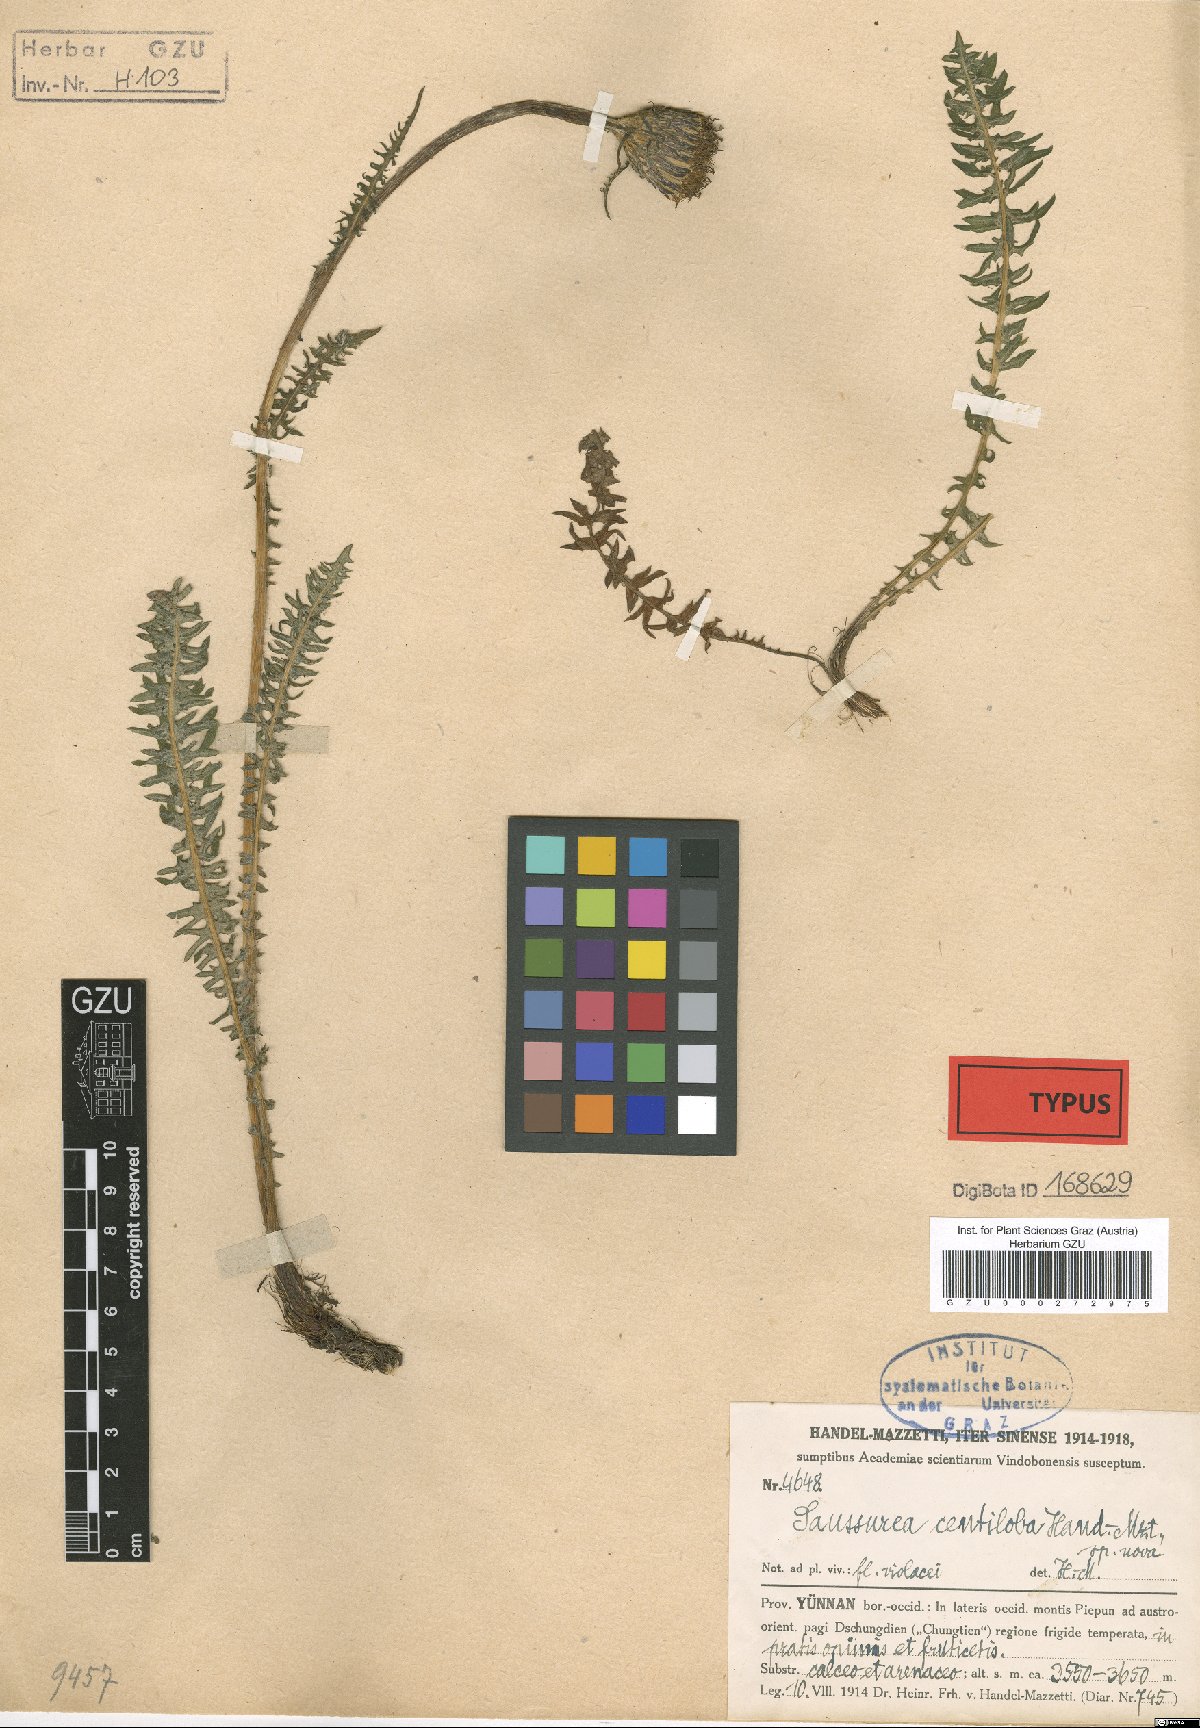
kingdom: Plantae
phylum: Tracheophyta
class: Magnoliopsida
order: Asterales
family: Asteraceae
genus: Saussurea
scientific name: Saussurea centiloba
